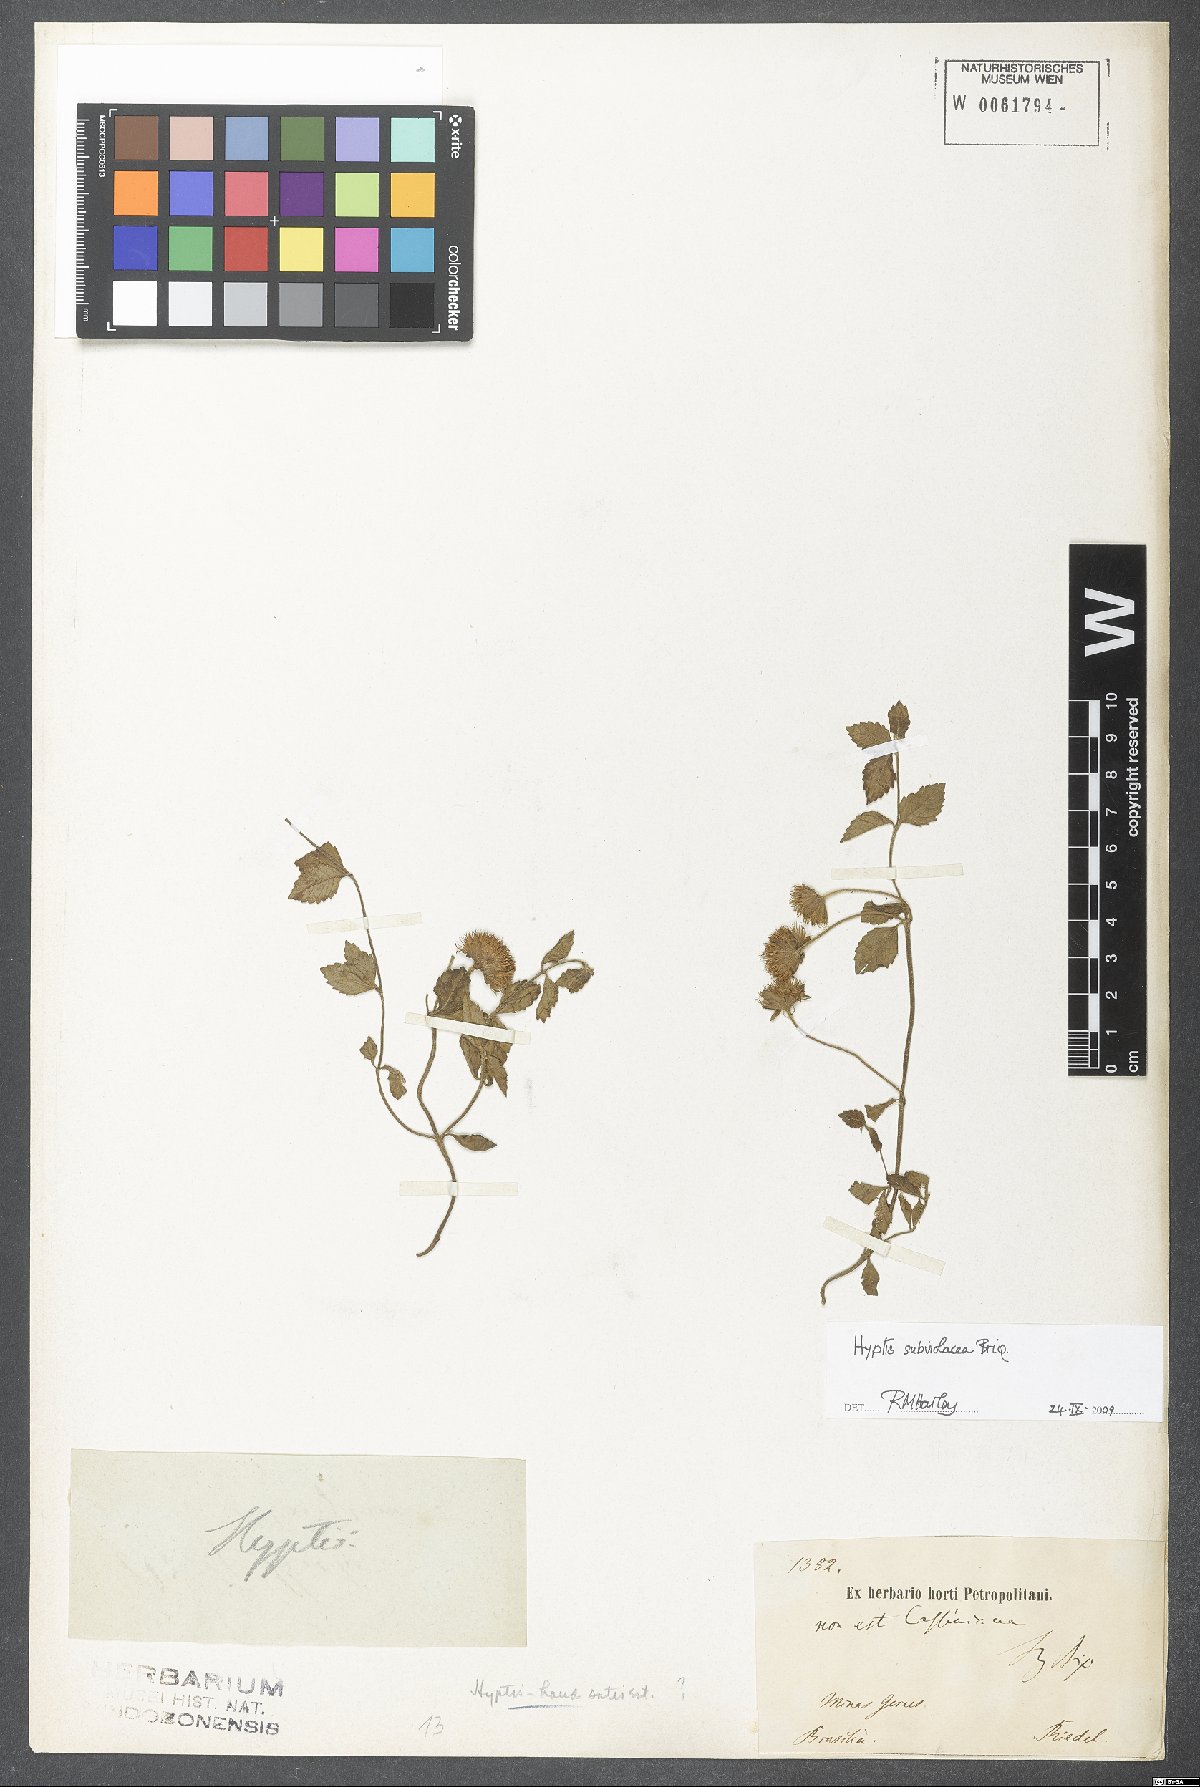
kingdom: Plantae
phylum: Tracheophyta
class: Magnoliopsida
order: Lamiales
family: Lamiaceae
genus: Hyptis
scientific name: Hyptis subviolacea
